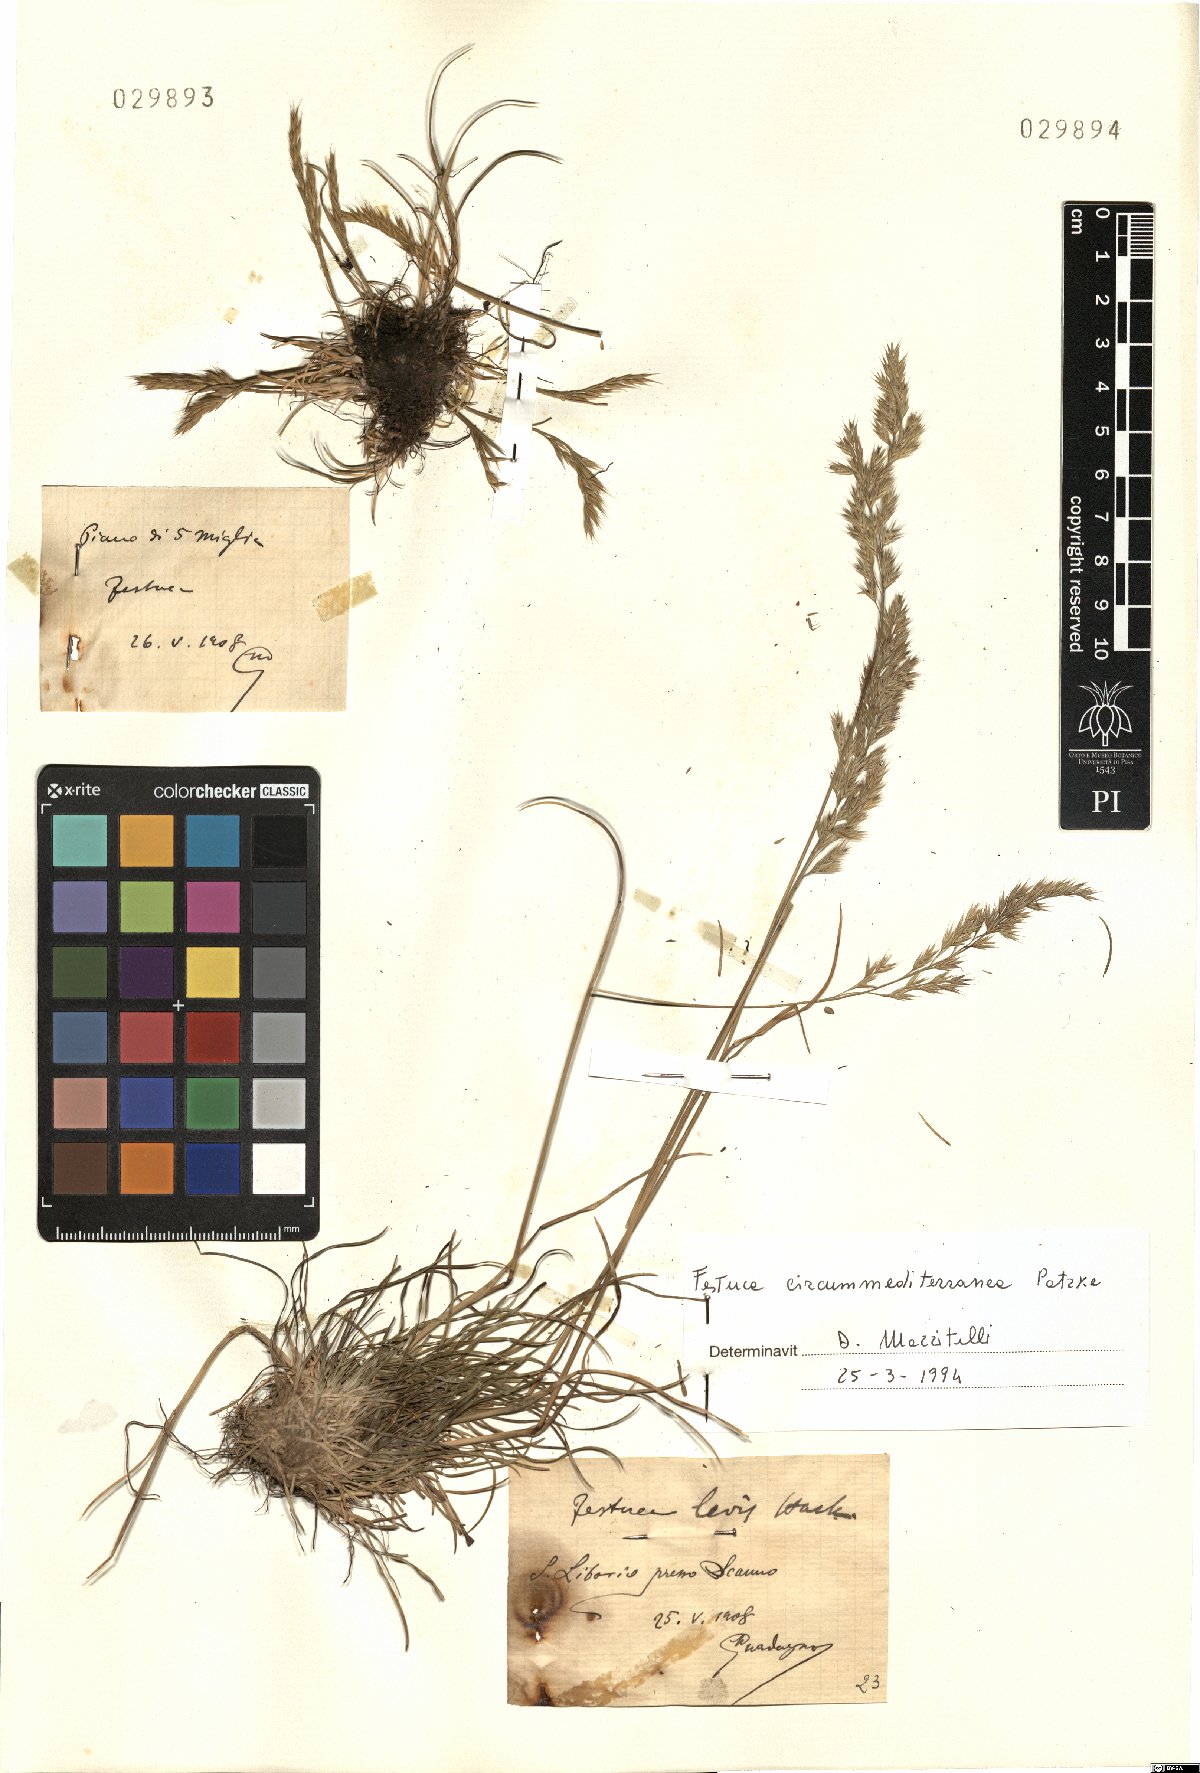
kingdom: Plantae
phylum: Tracheophyta
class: Liliopsida
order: Poales
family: Poaceae
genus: Festuca
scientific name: Festuca
